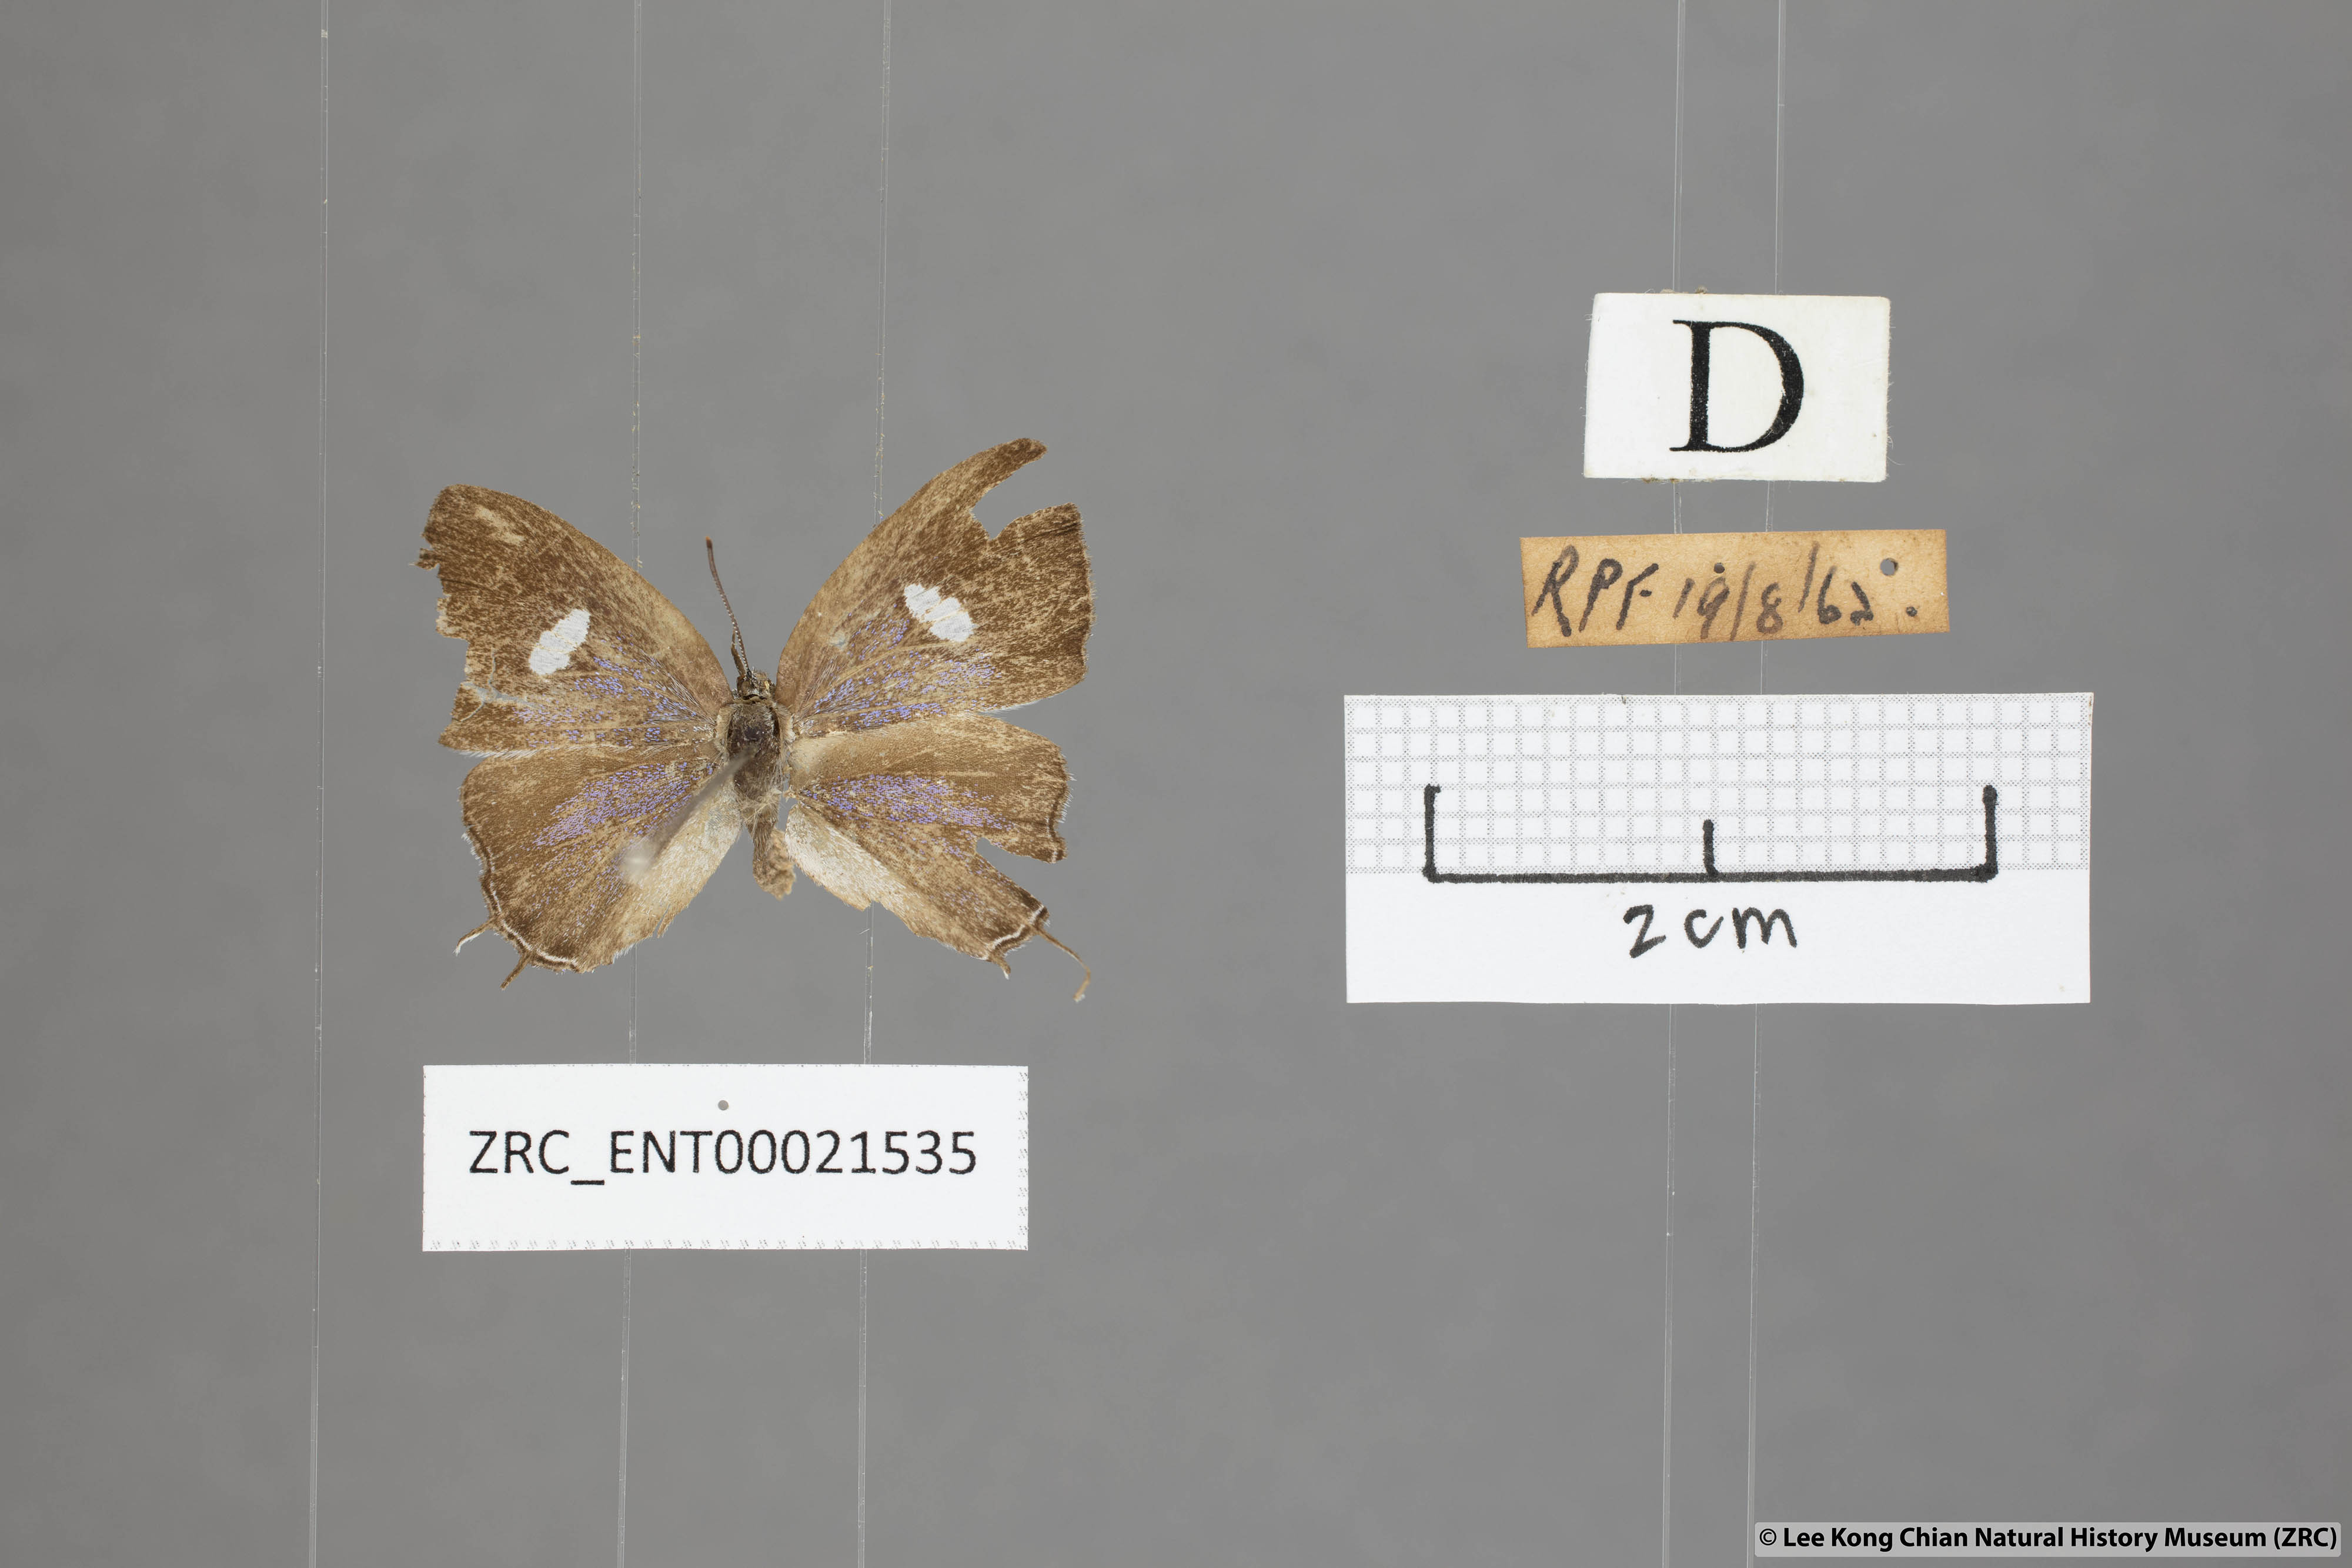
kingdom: Animalia
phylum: Arthropoda
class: Insecta
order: Lepidoptera
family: Lycaenidae
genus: Horaga
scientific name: Horaga syrinx
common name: Ambon onyx
